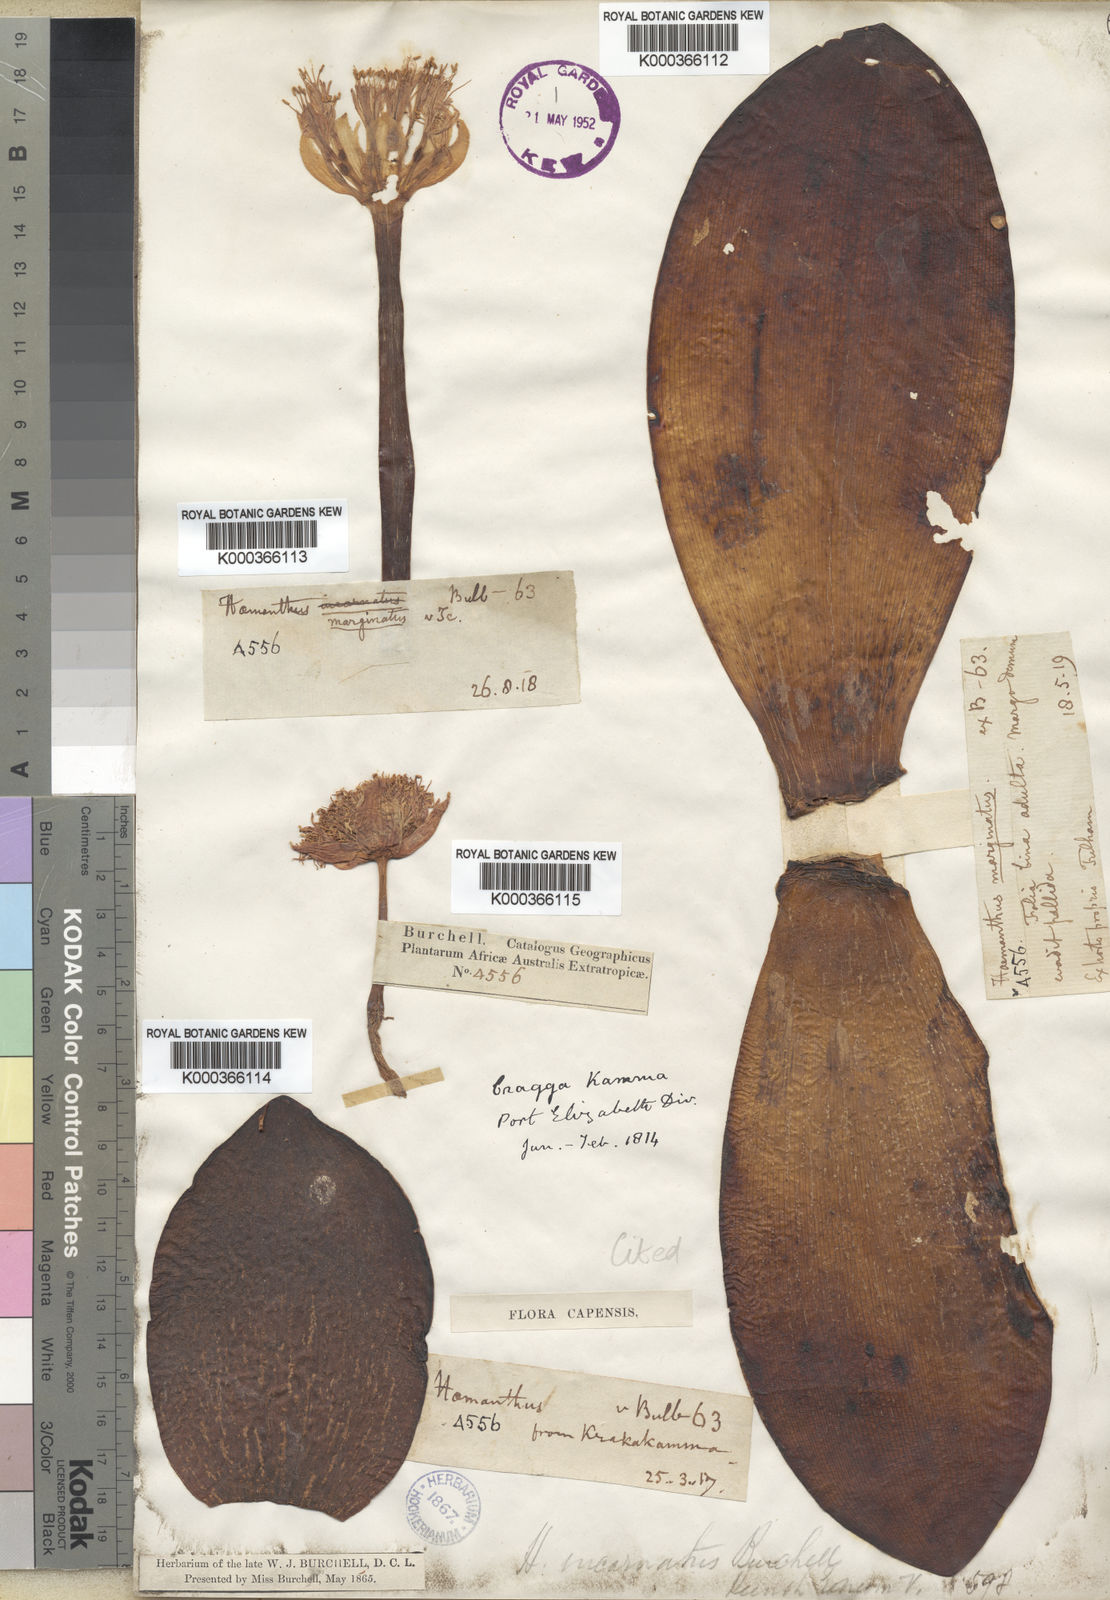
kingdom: Plantae
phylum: Tracheophyta
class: Liliopsida
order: Asparagales
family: Amaryllidaceae
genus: Haemanthus
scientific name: Haemanthus sanguineus
